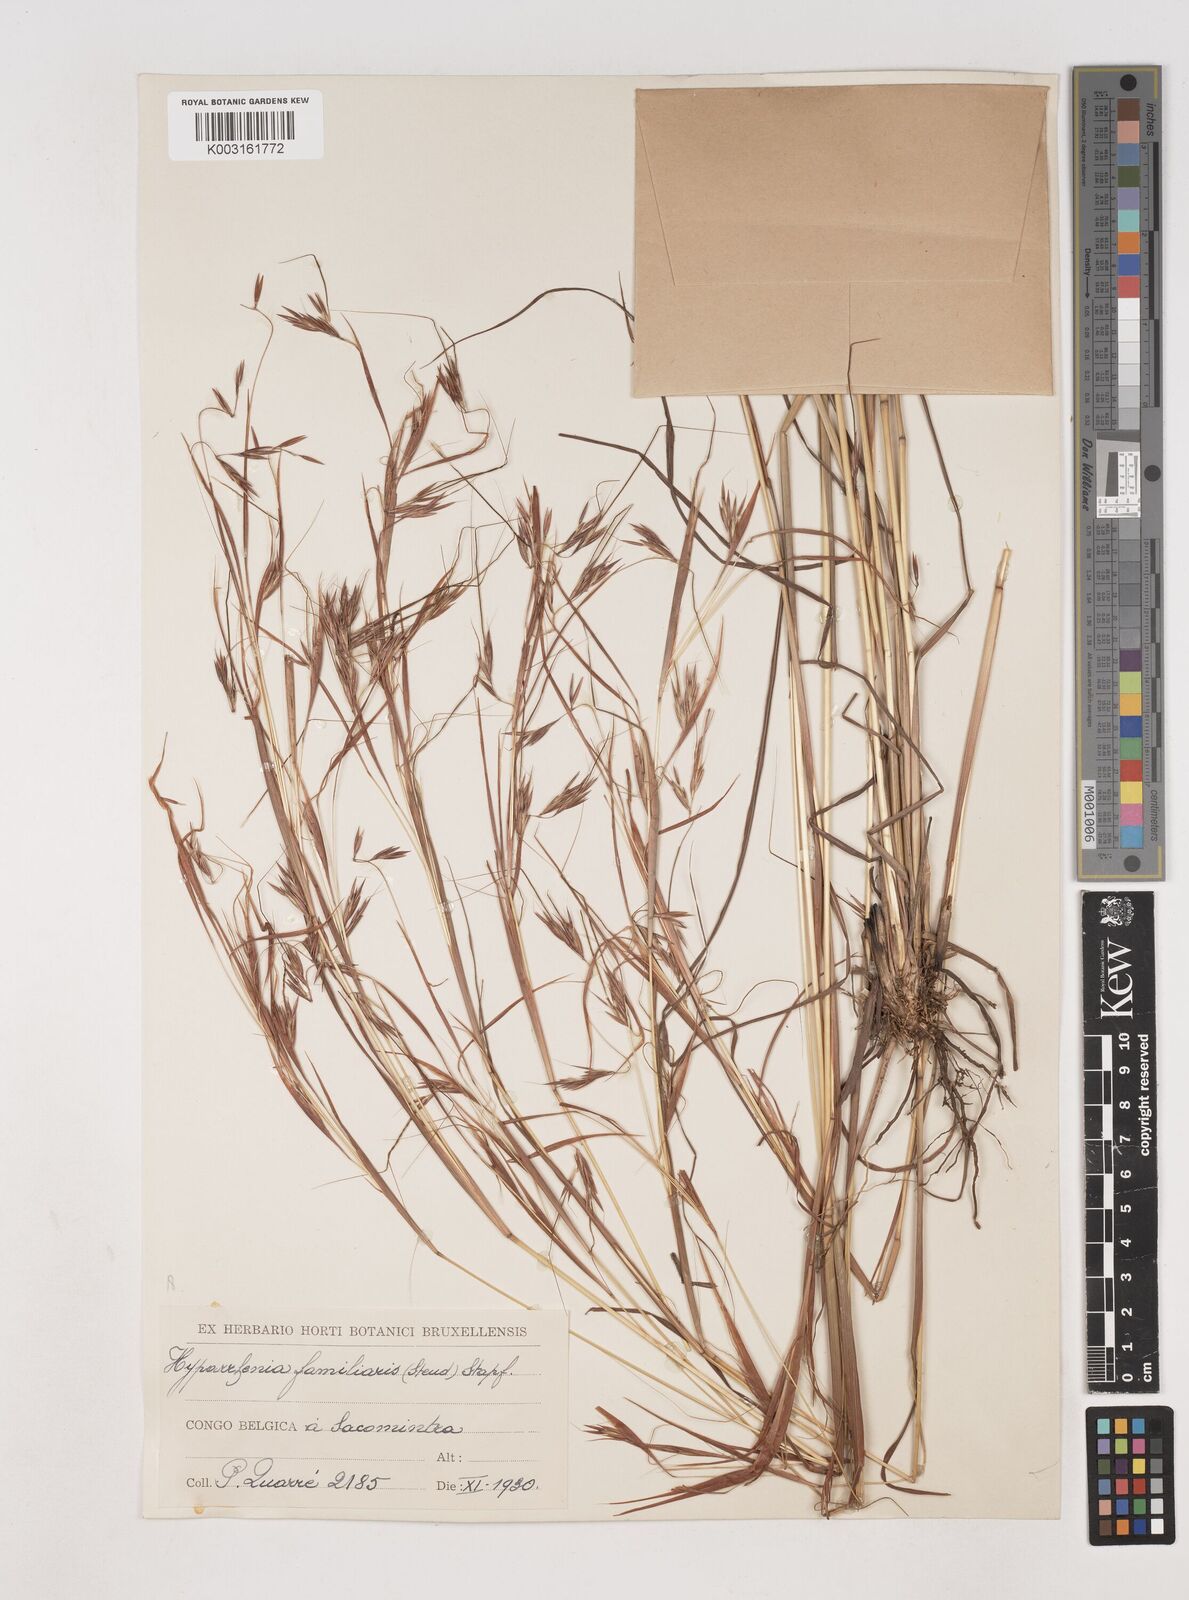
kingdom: Plantae
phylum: Tracheophyta
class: Liliopsida
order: Poales
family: Poaceae
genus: Hyparrhenia
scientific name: Hyparrhenia familiaris
